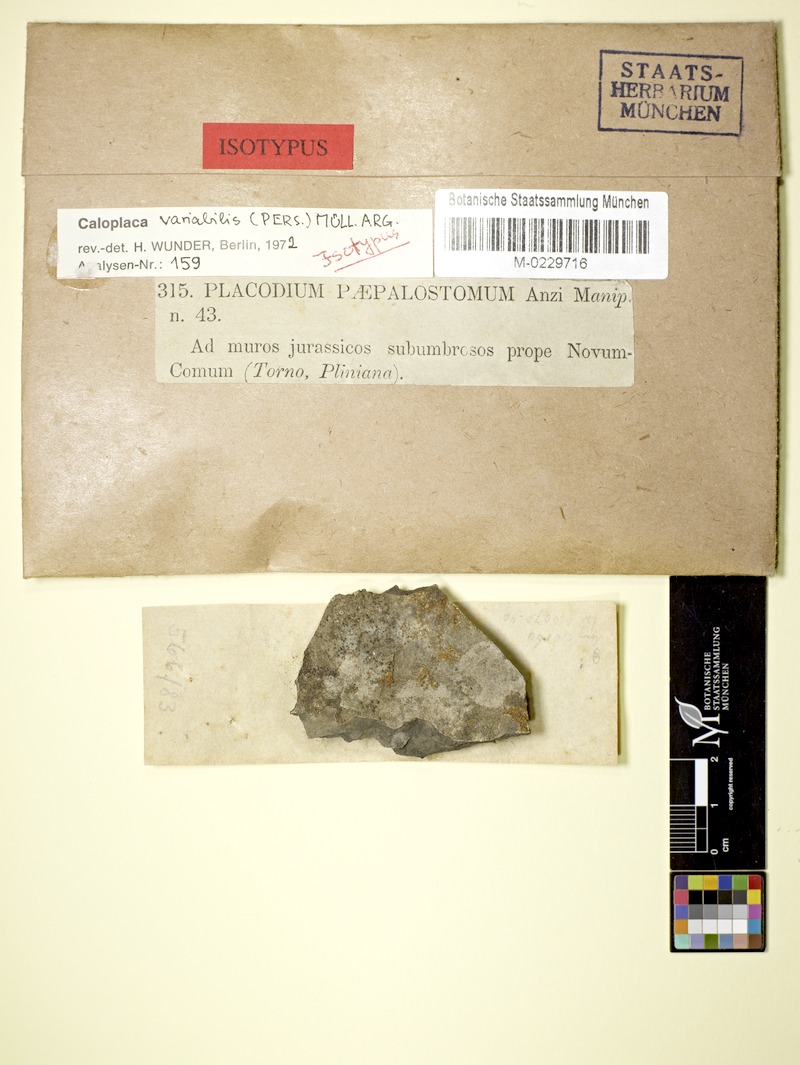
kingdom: Fungi
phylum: Ascomycota
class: Lecanoromycetes
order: Teloschistales
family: Teloschistaceae
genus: Pyrenodesmia
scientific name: Pyrenodesmia variabilis
